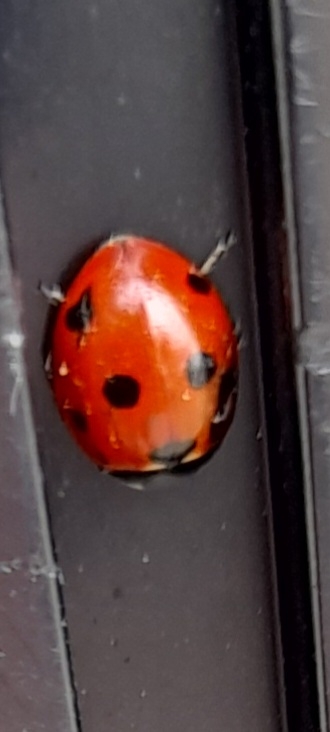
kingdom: Animalia
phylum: Arthropoda
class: Insecta
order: Coleoptera
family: Coccinellidae
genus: Coccinella
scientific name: Coccinella septempunctata
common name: Syvplettet mariehøne
